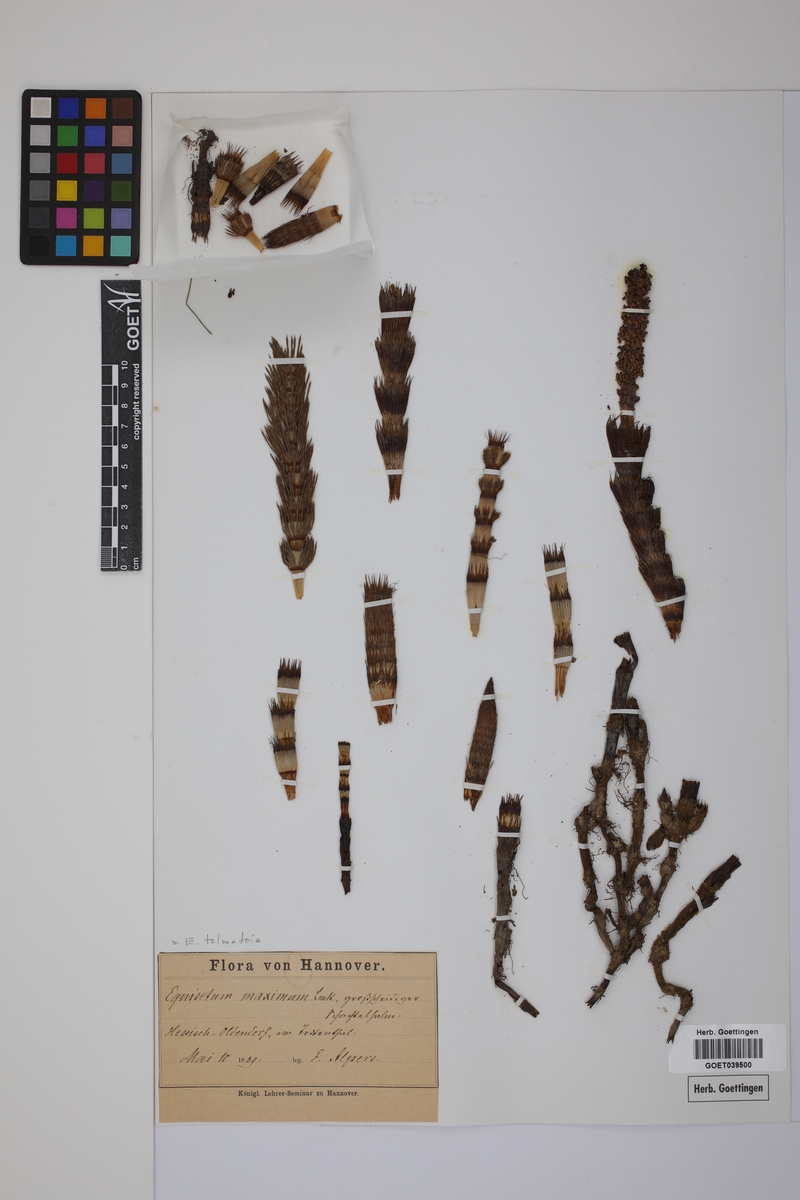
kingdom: Plantae
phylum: Tracheophyta
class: Polypodiopsida
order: Equisetales
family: Equisetaceae
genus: Equisetum
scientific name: Equisetum telmateia
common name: Great horsetail
